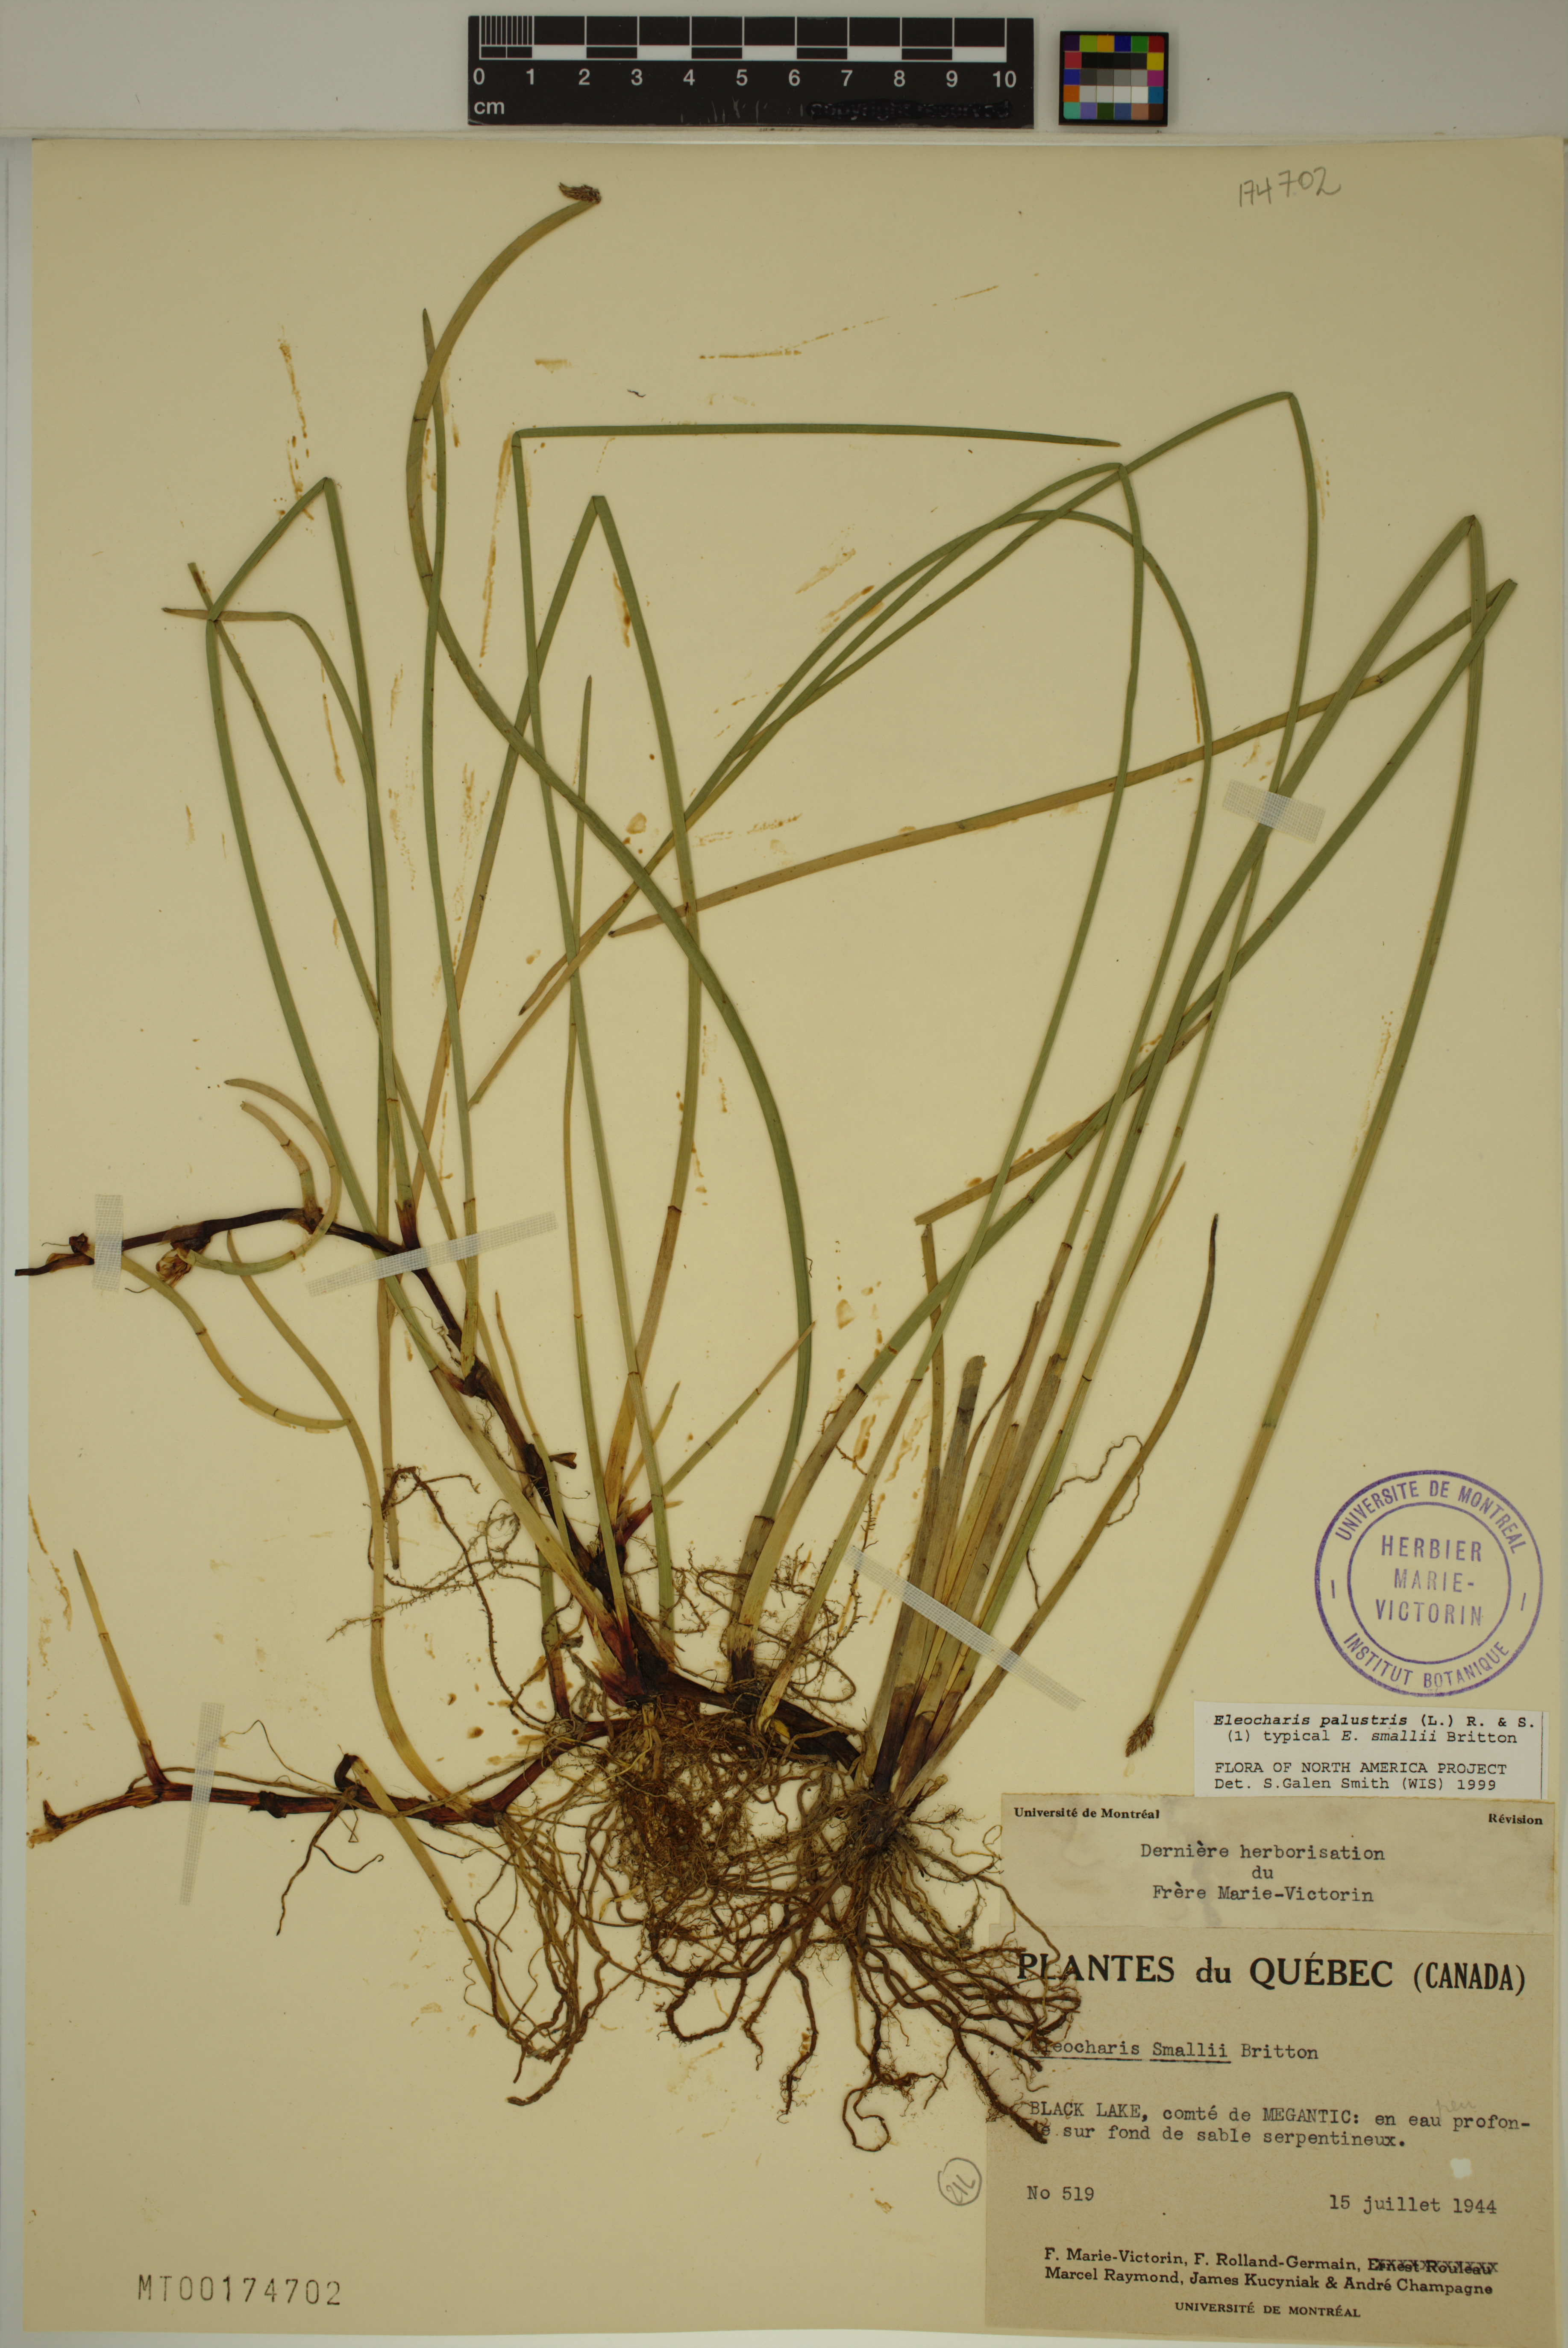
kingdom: Plantae
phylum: Tracheophyta
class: Liliopsida
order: Poales
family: Cyperaceae
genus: Eleocharis
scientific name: Eleocharis palustris
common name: Common spike-rush
